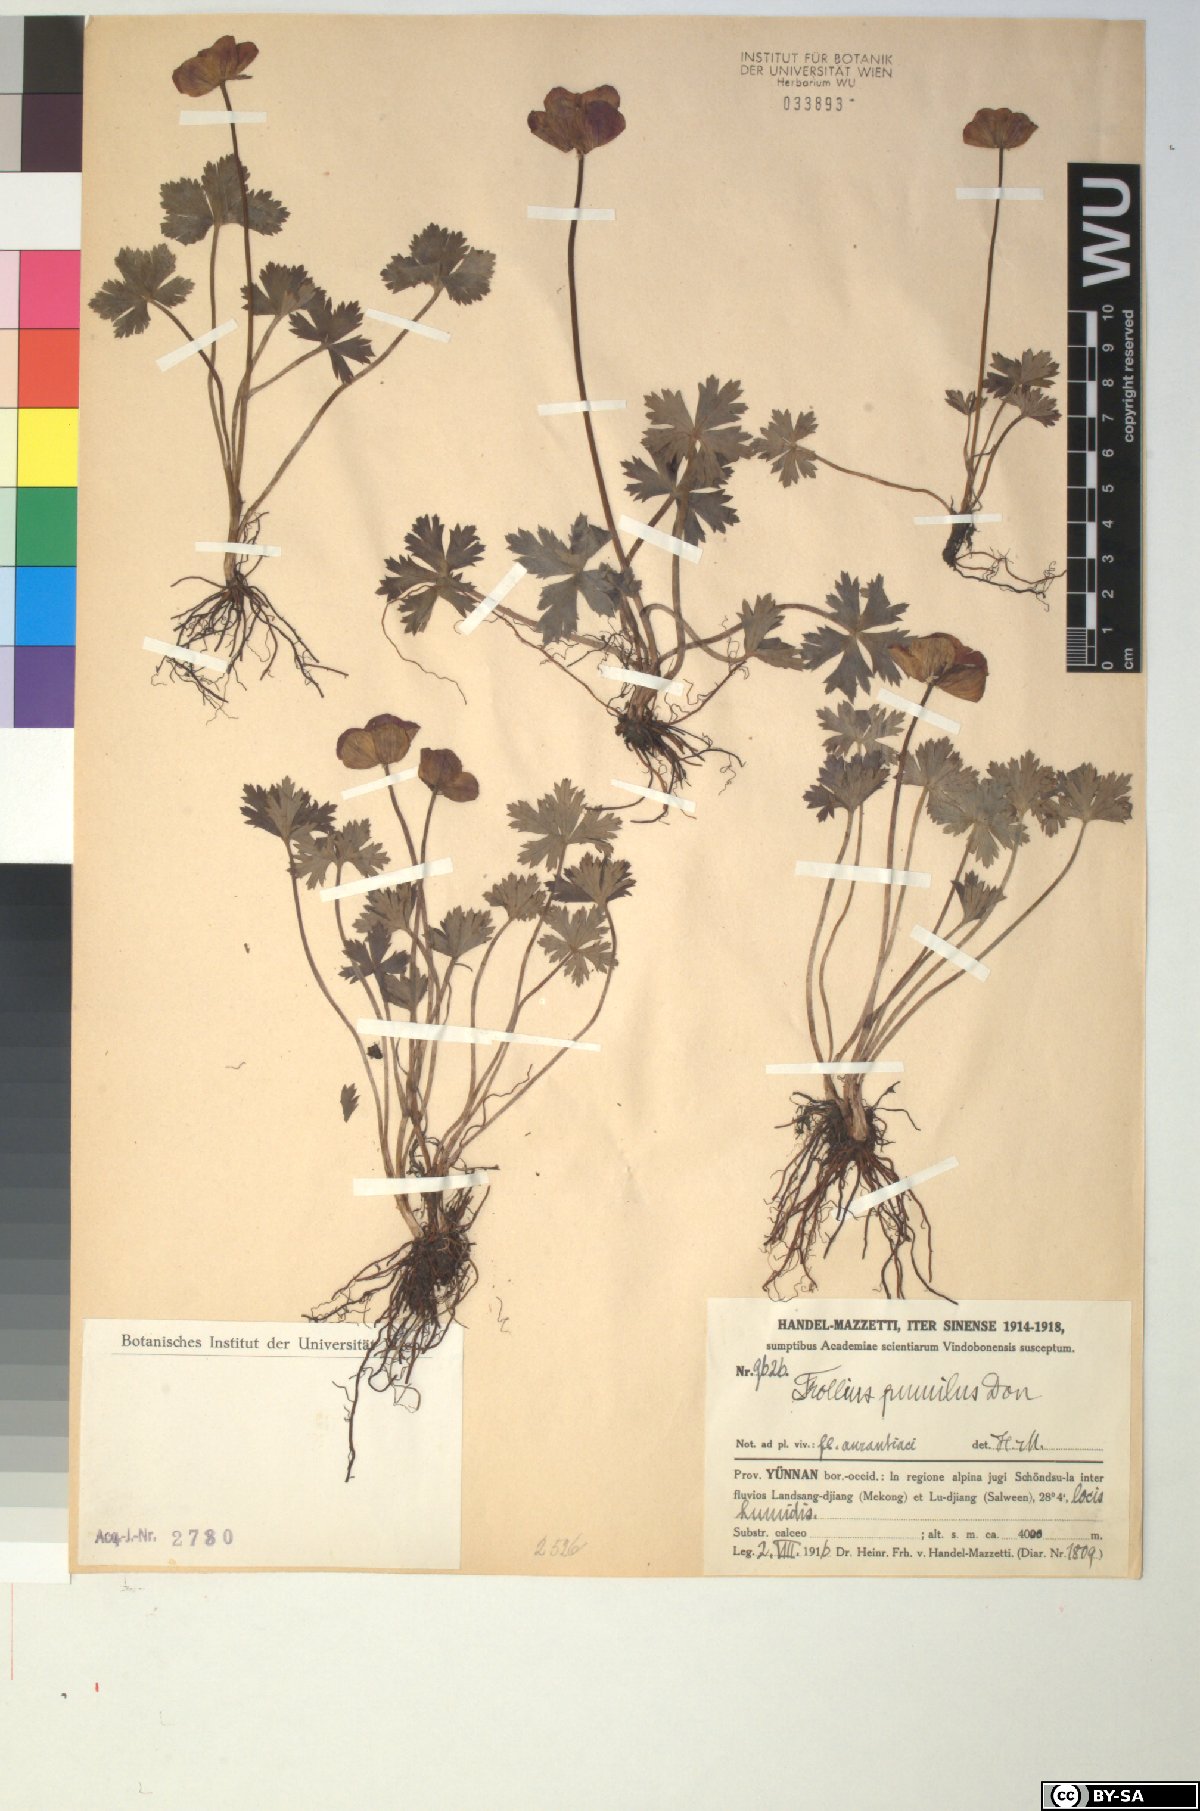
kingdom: Plantae
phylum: Tracheophyta
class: Magnoliopsida
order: Ranunculales
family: Ranunculaceae
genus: Trollius
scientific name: Trollius pumilus
